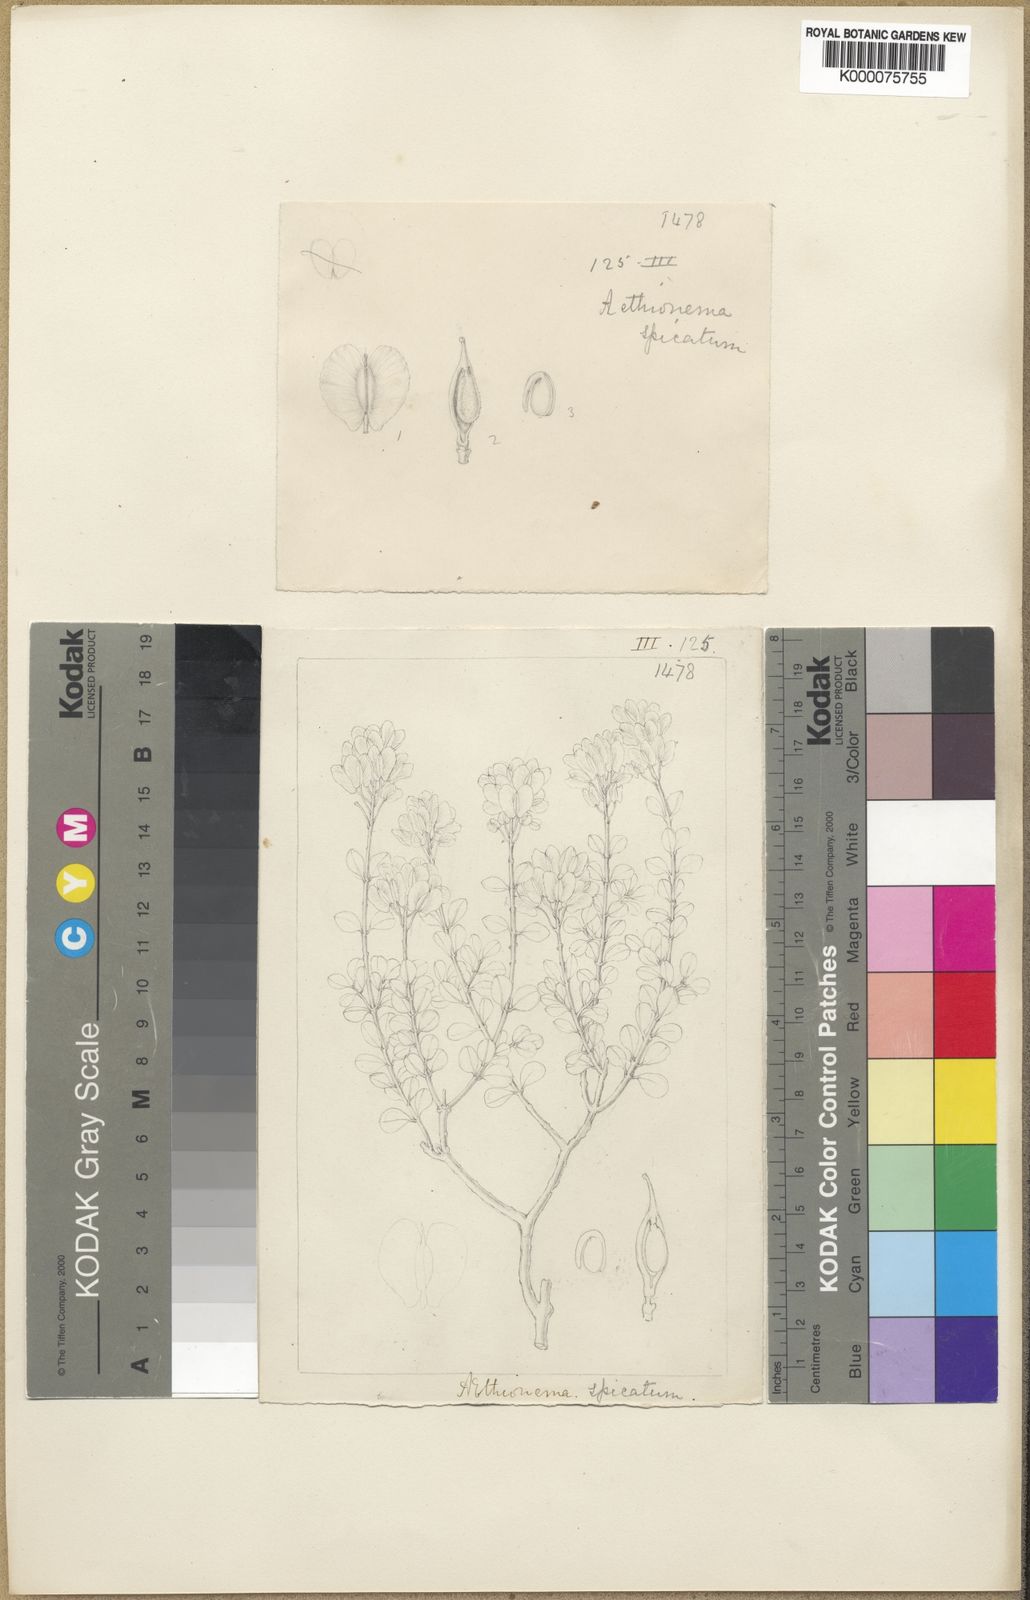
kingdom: Plantae
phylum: Tracheophyta
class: Magnoliopsida
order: Brassicales
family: Brassicaceae
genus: Aethionema
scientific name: Aethionema spicatum
